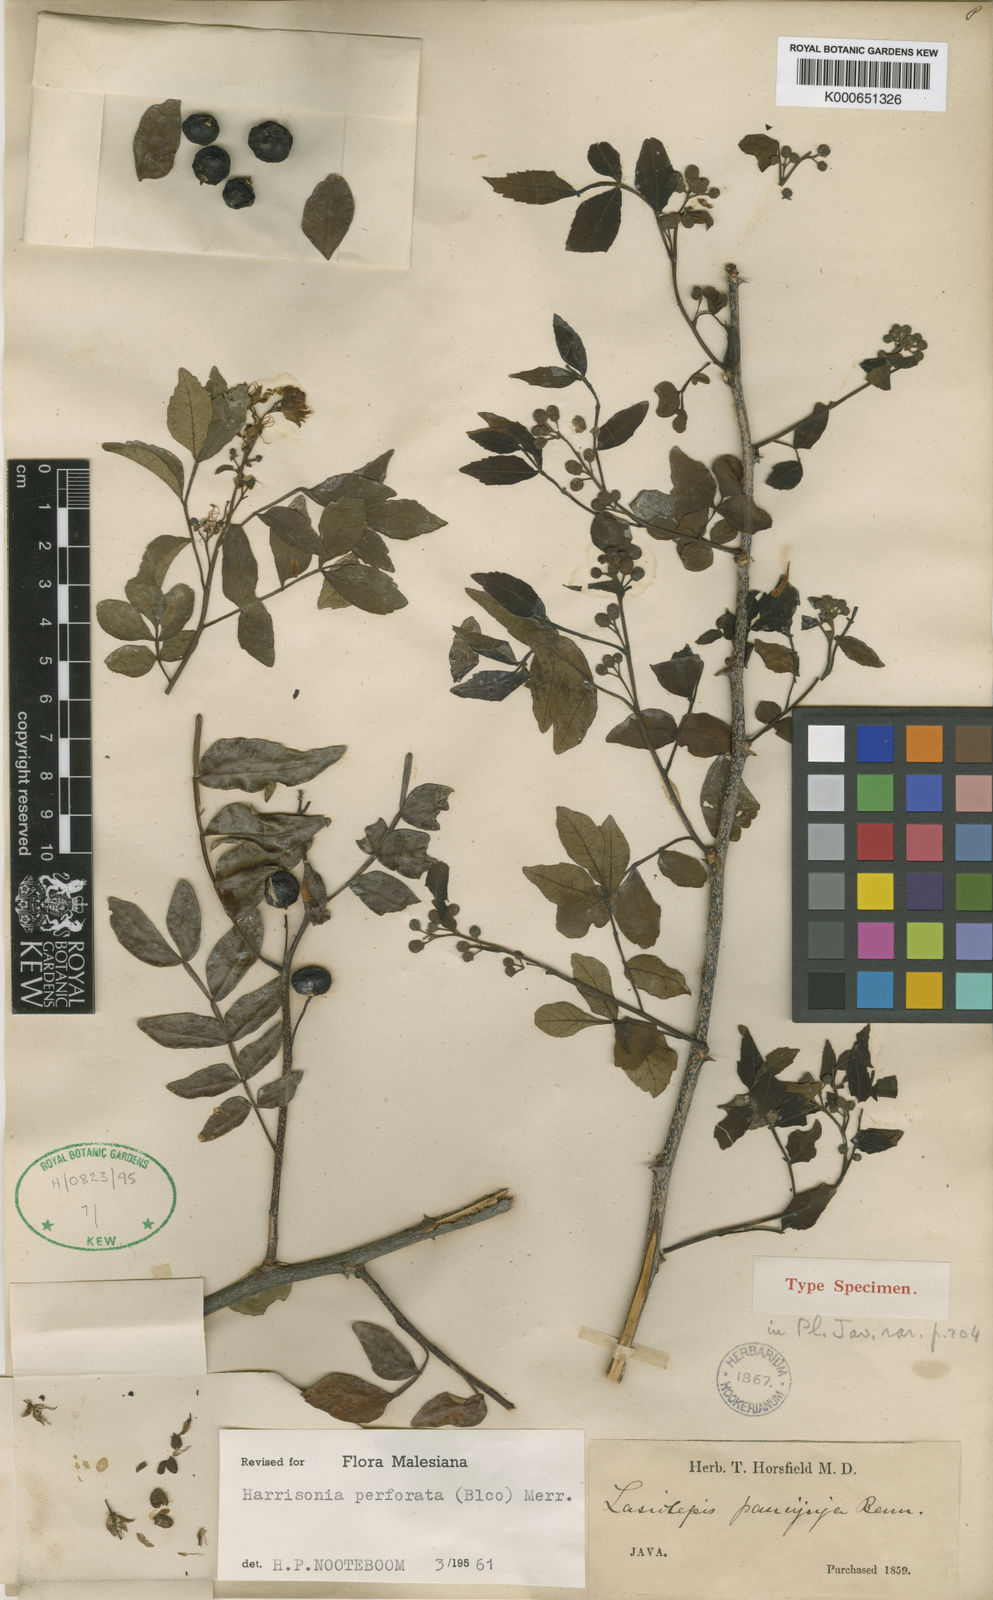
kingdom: Plantae
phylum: Tracheophyta
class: Magnoliopsida
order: Sapindales
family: Rutaceae
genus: Harrisonia
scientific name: Harrisonia perforata
